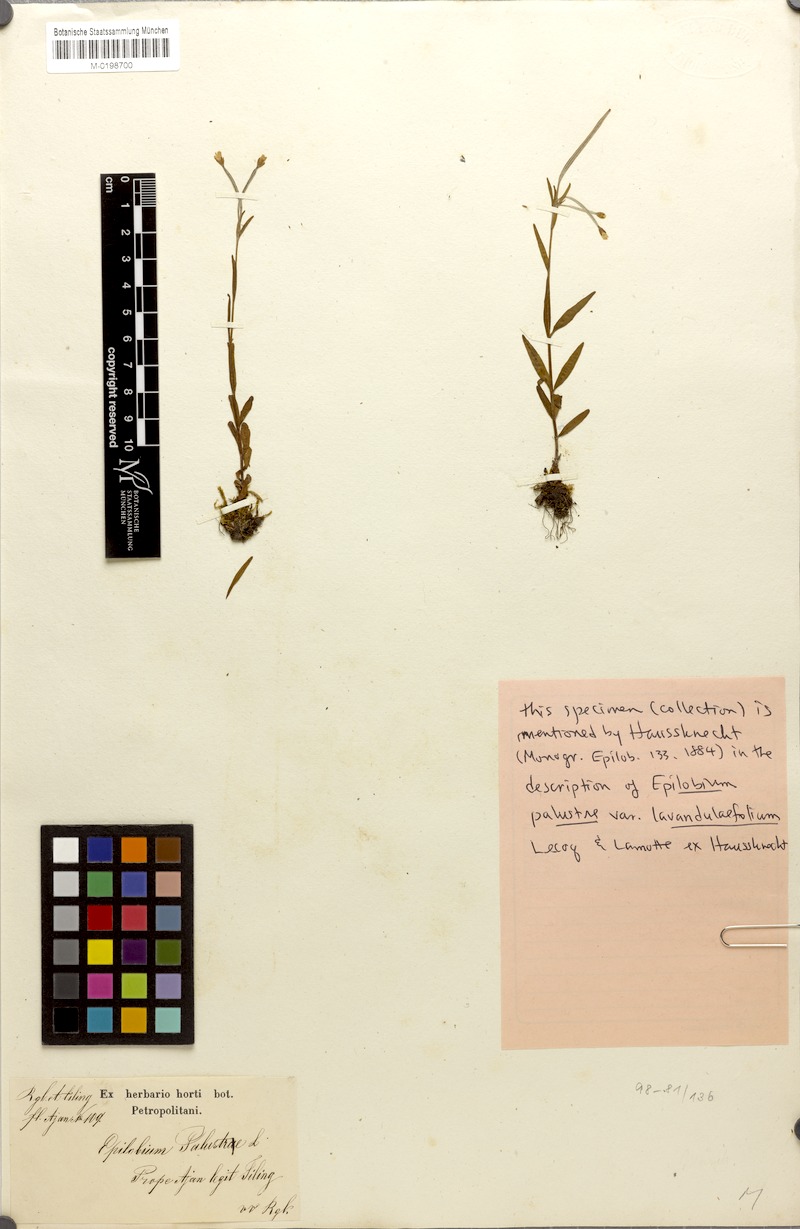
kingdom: Plantae
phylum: Tracheophyta
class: Magnoliopsida
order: Myrtales
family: Onagraceae
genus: Epilobium
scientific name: Epilobium palustre
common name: Marsh willowherb
